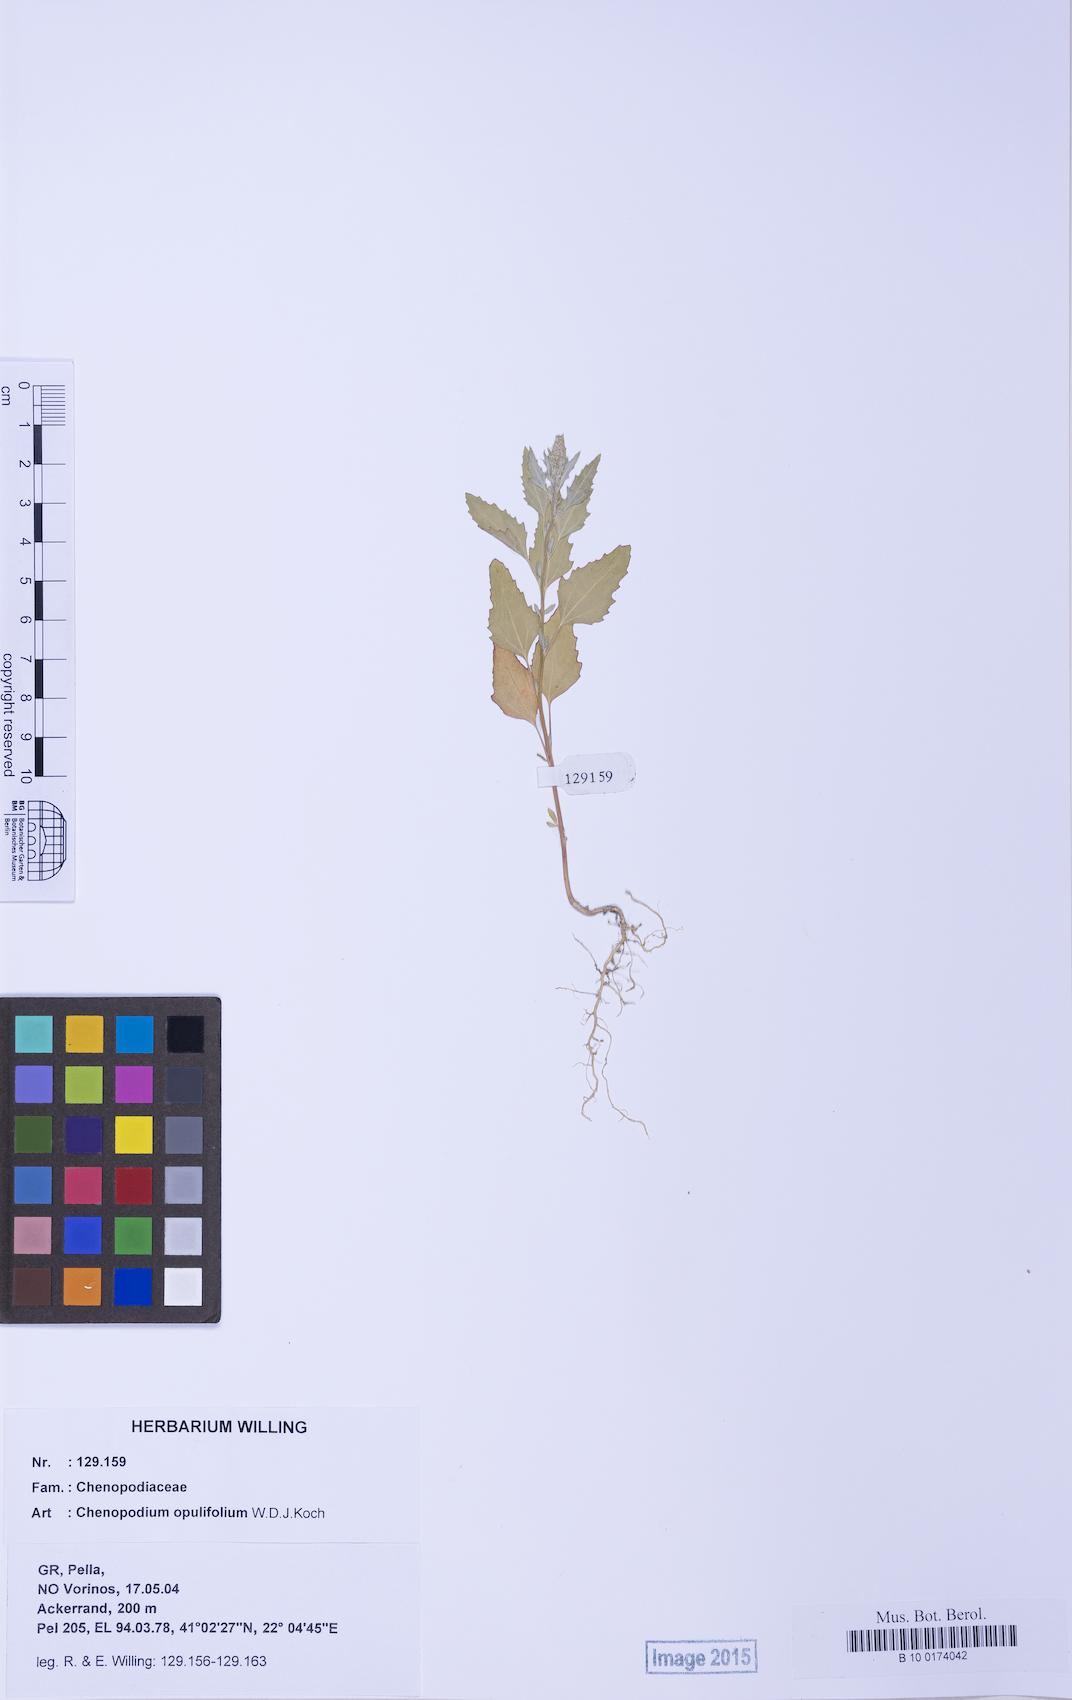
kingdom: Plantae
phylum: Tracheophyta
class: Magnoliopsida
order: Caryophyllales
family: Amaranthaceae
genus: Chenopodium
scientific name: Chenopodium album
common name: Fat-hen
